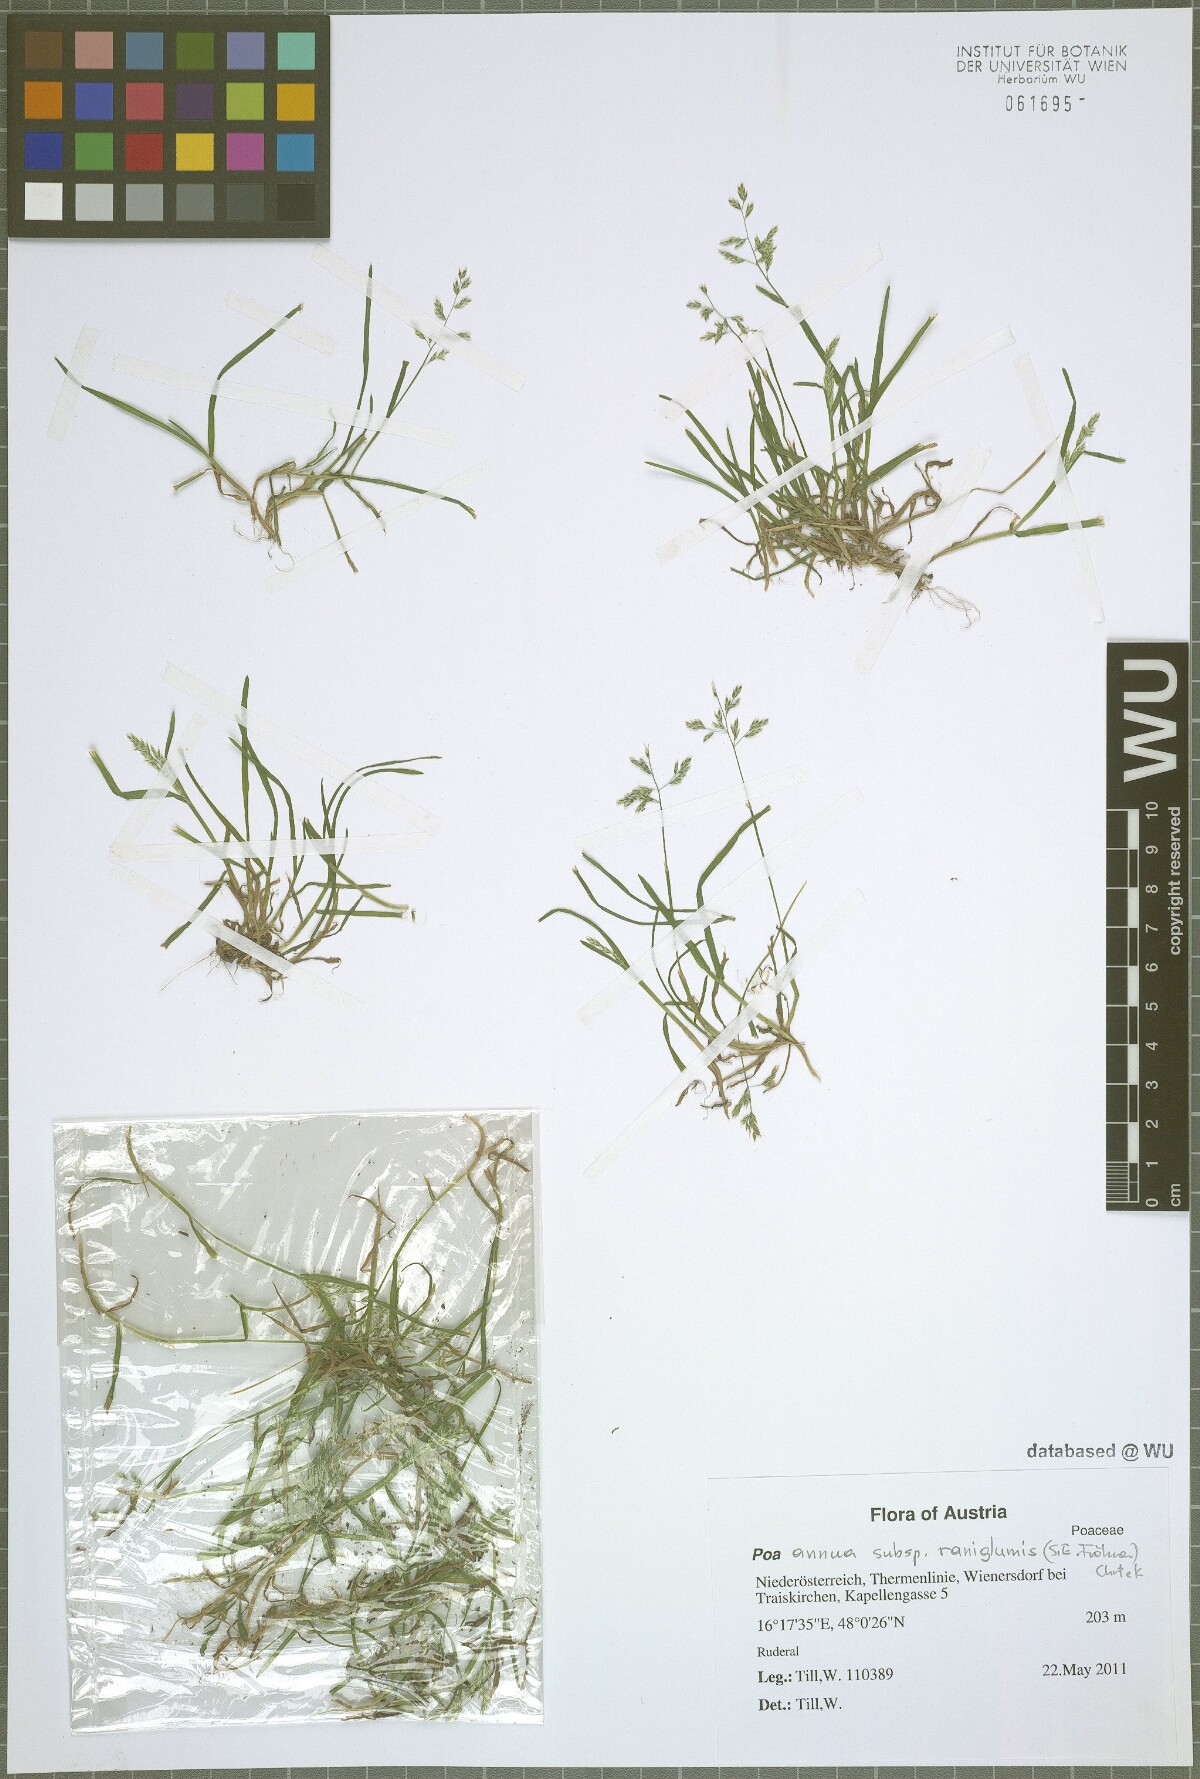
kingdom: Plantae
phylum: Tracheophyta
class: Liliopsida
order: Poales
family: Poaceae
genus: Poa
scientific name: Poa annua
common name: Annual bluegrass
